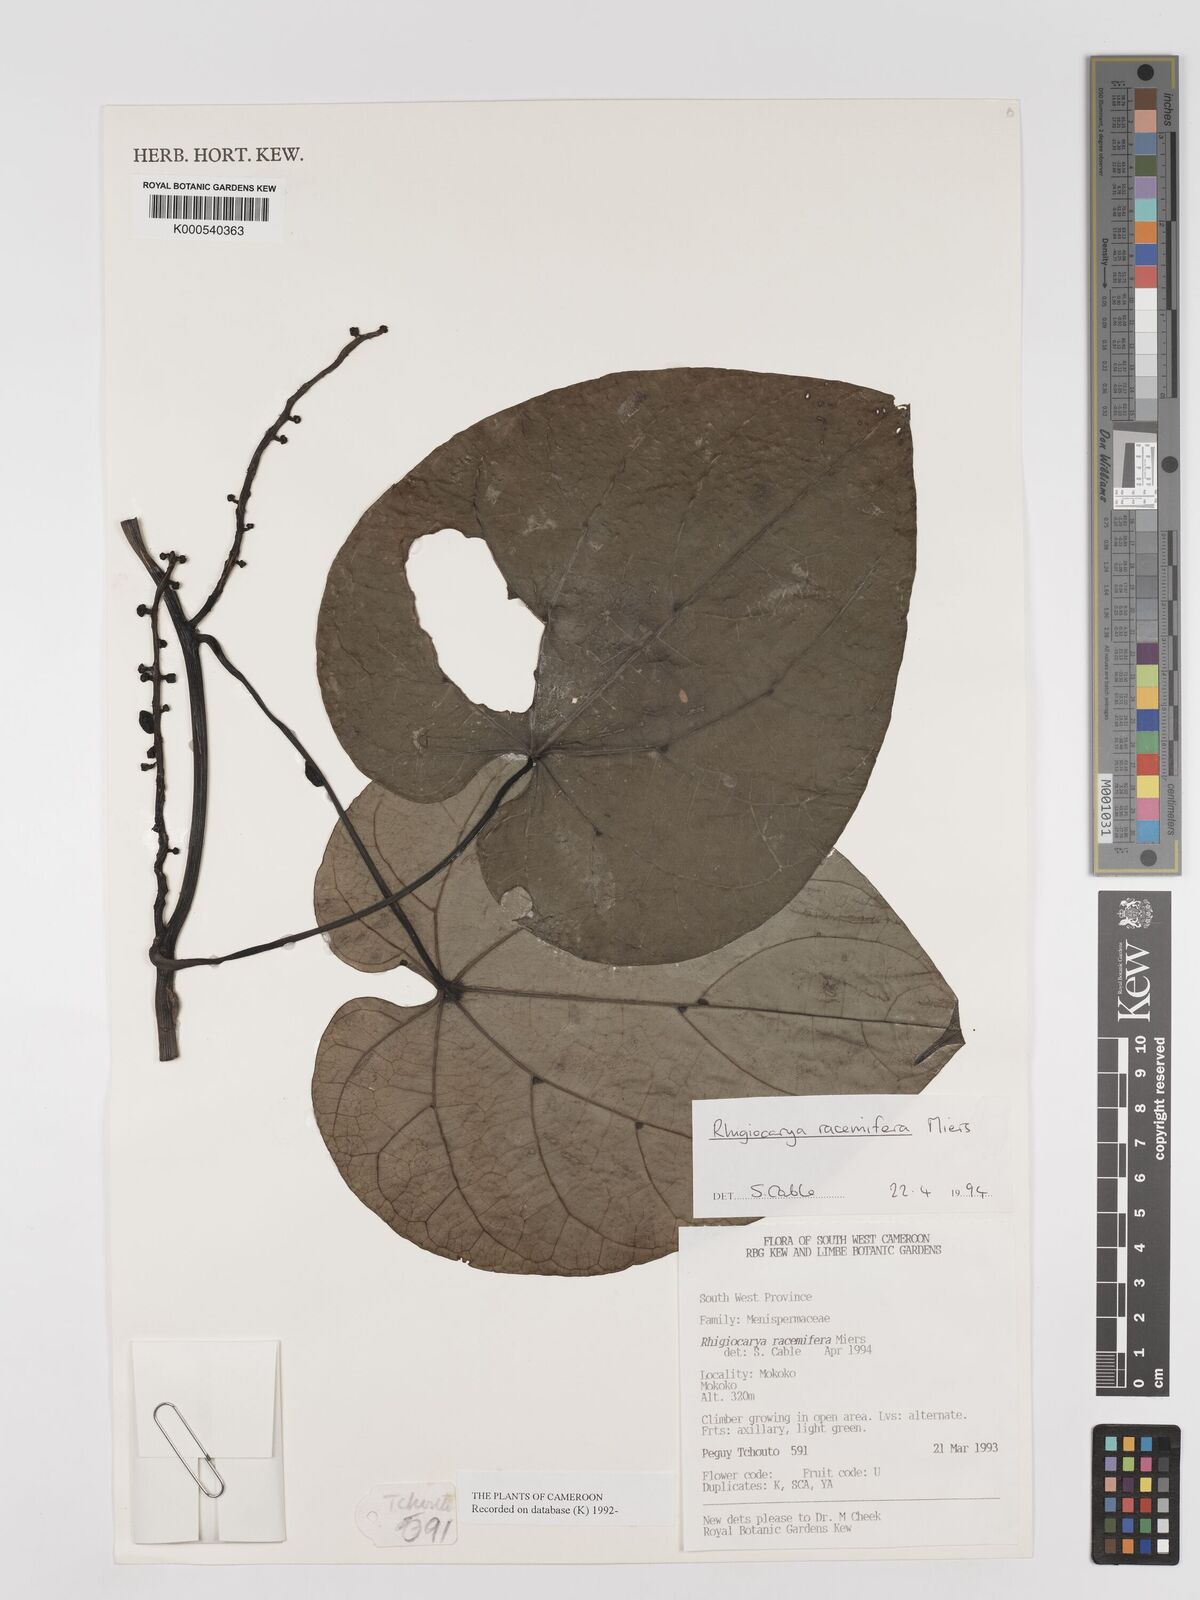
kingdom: Plantae
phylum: Tracheophyta
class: Magnoliopsida
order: Ranunculales
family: Menispermaceae
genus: Rhigiocarya
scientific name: Rhigiocarya racemifera
